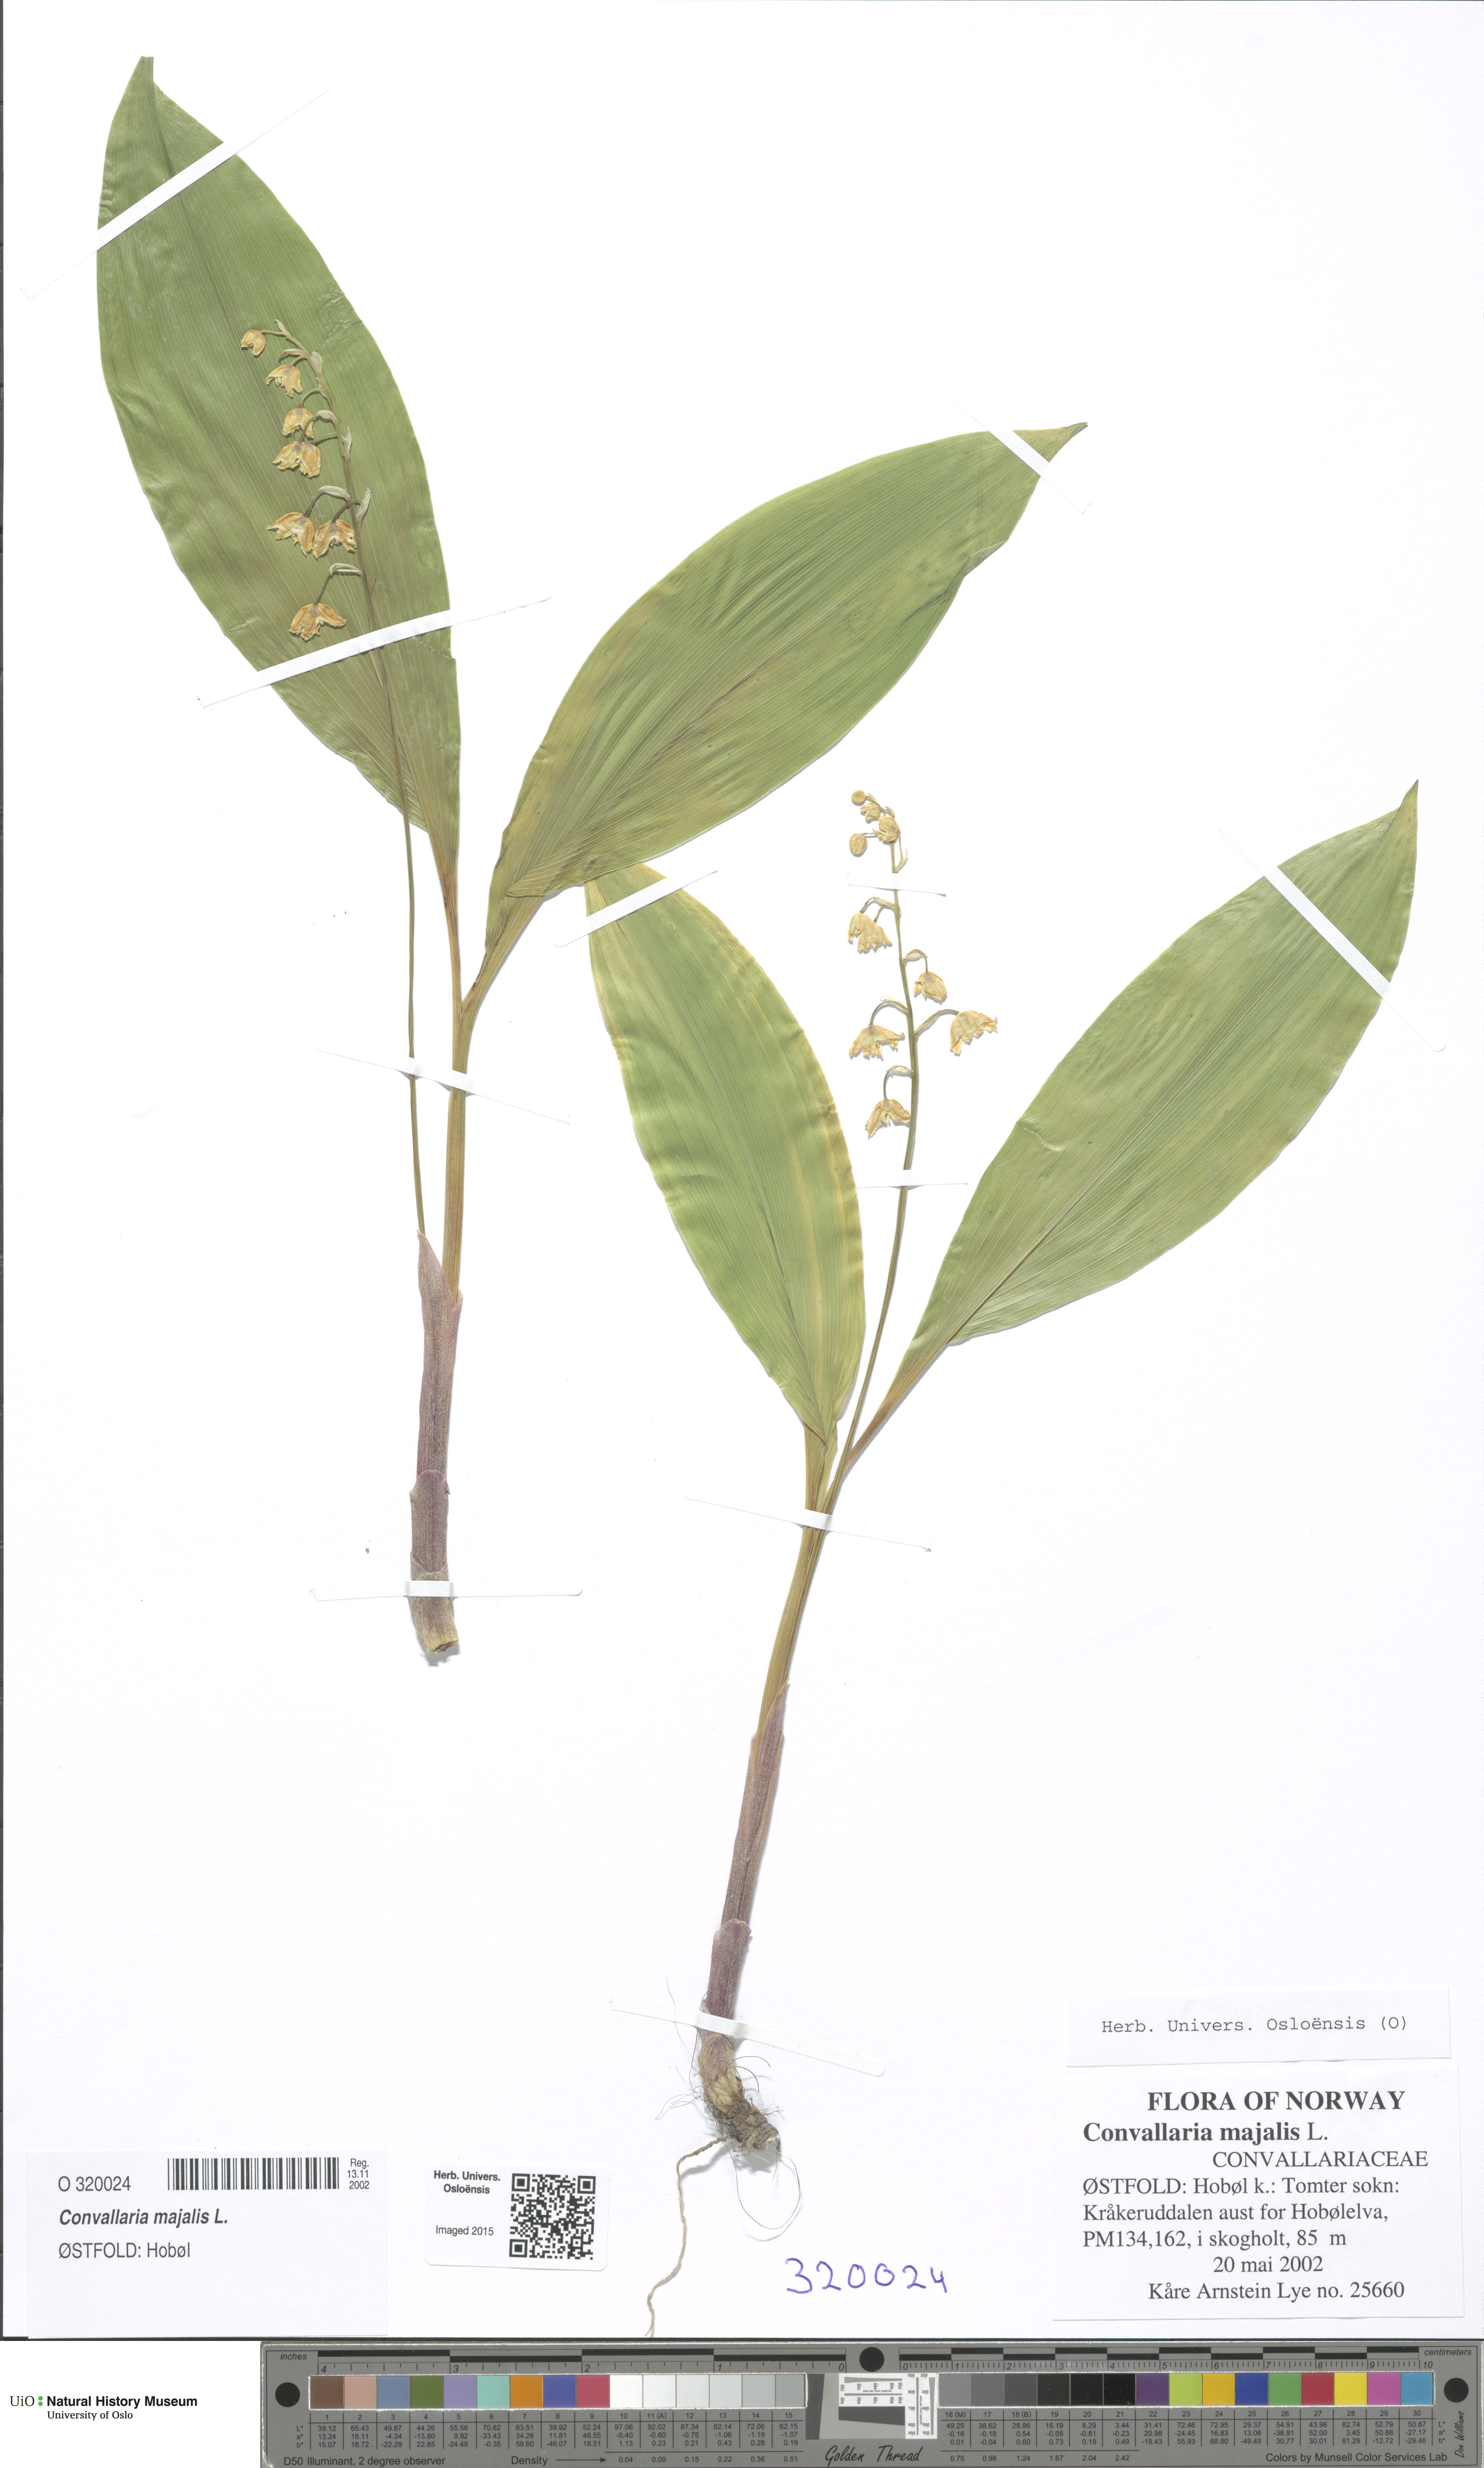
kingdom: Plantae
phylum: Tracheophyta
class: Liliopsida
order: Asparagales
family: Asparagaceae
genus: Convallaria
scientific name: Convallaria majalis
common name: Lily-of-the-valley
